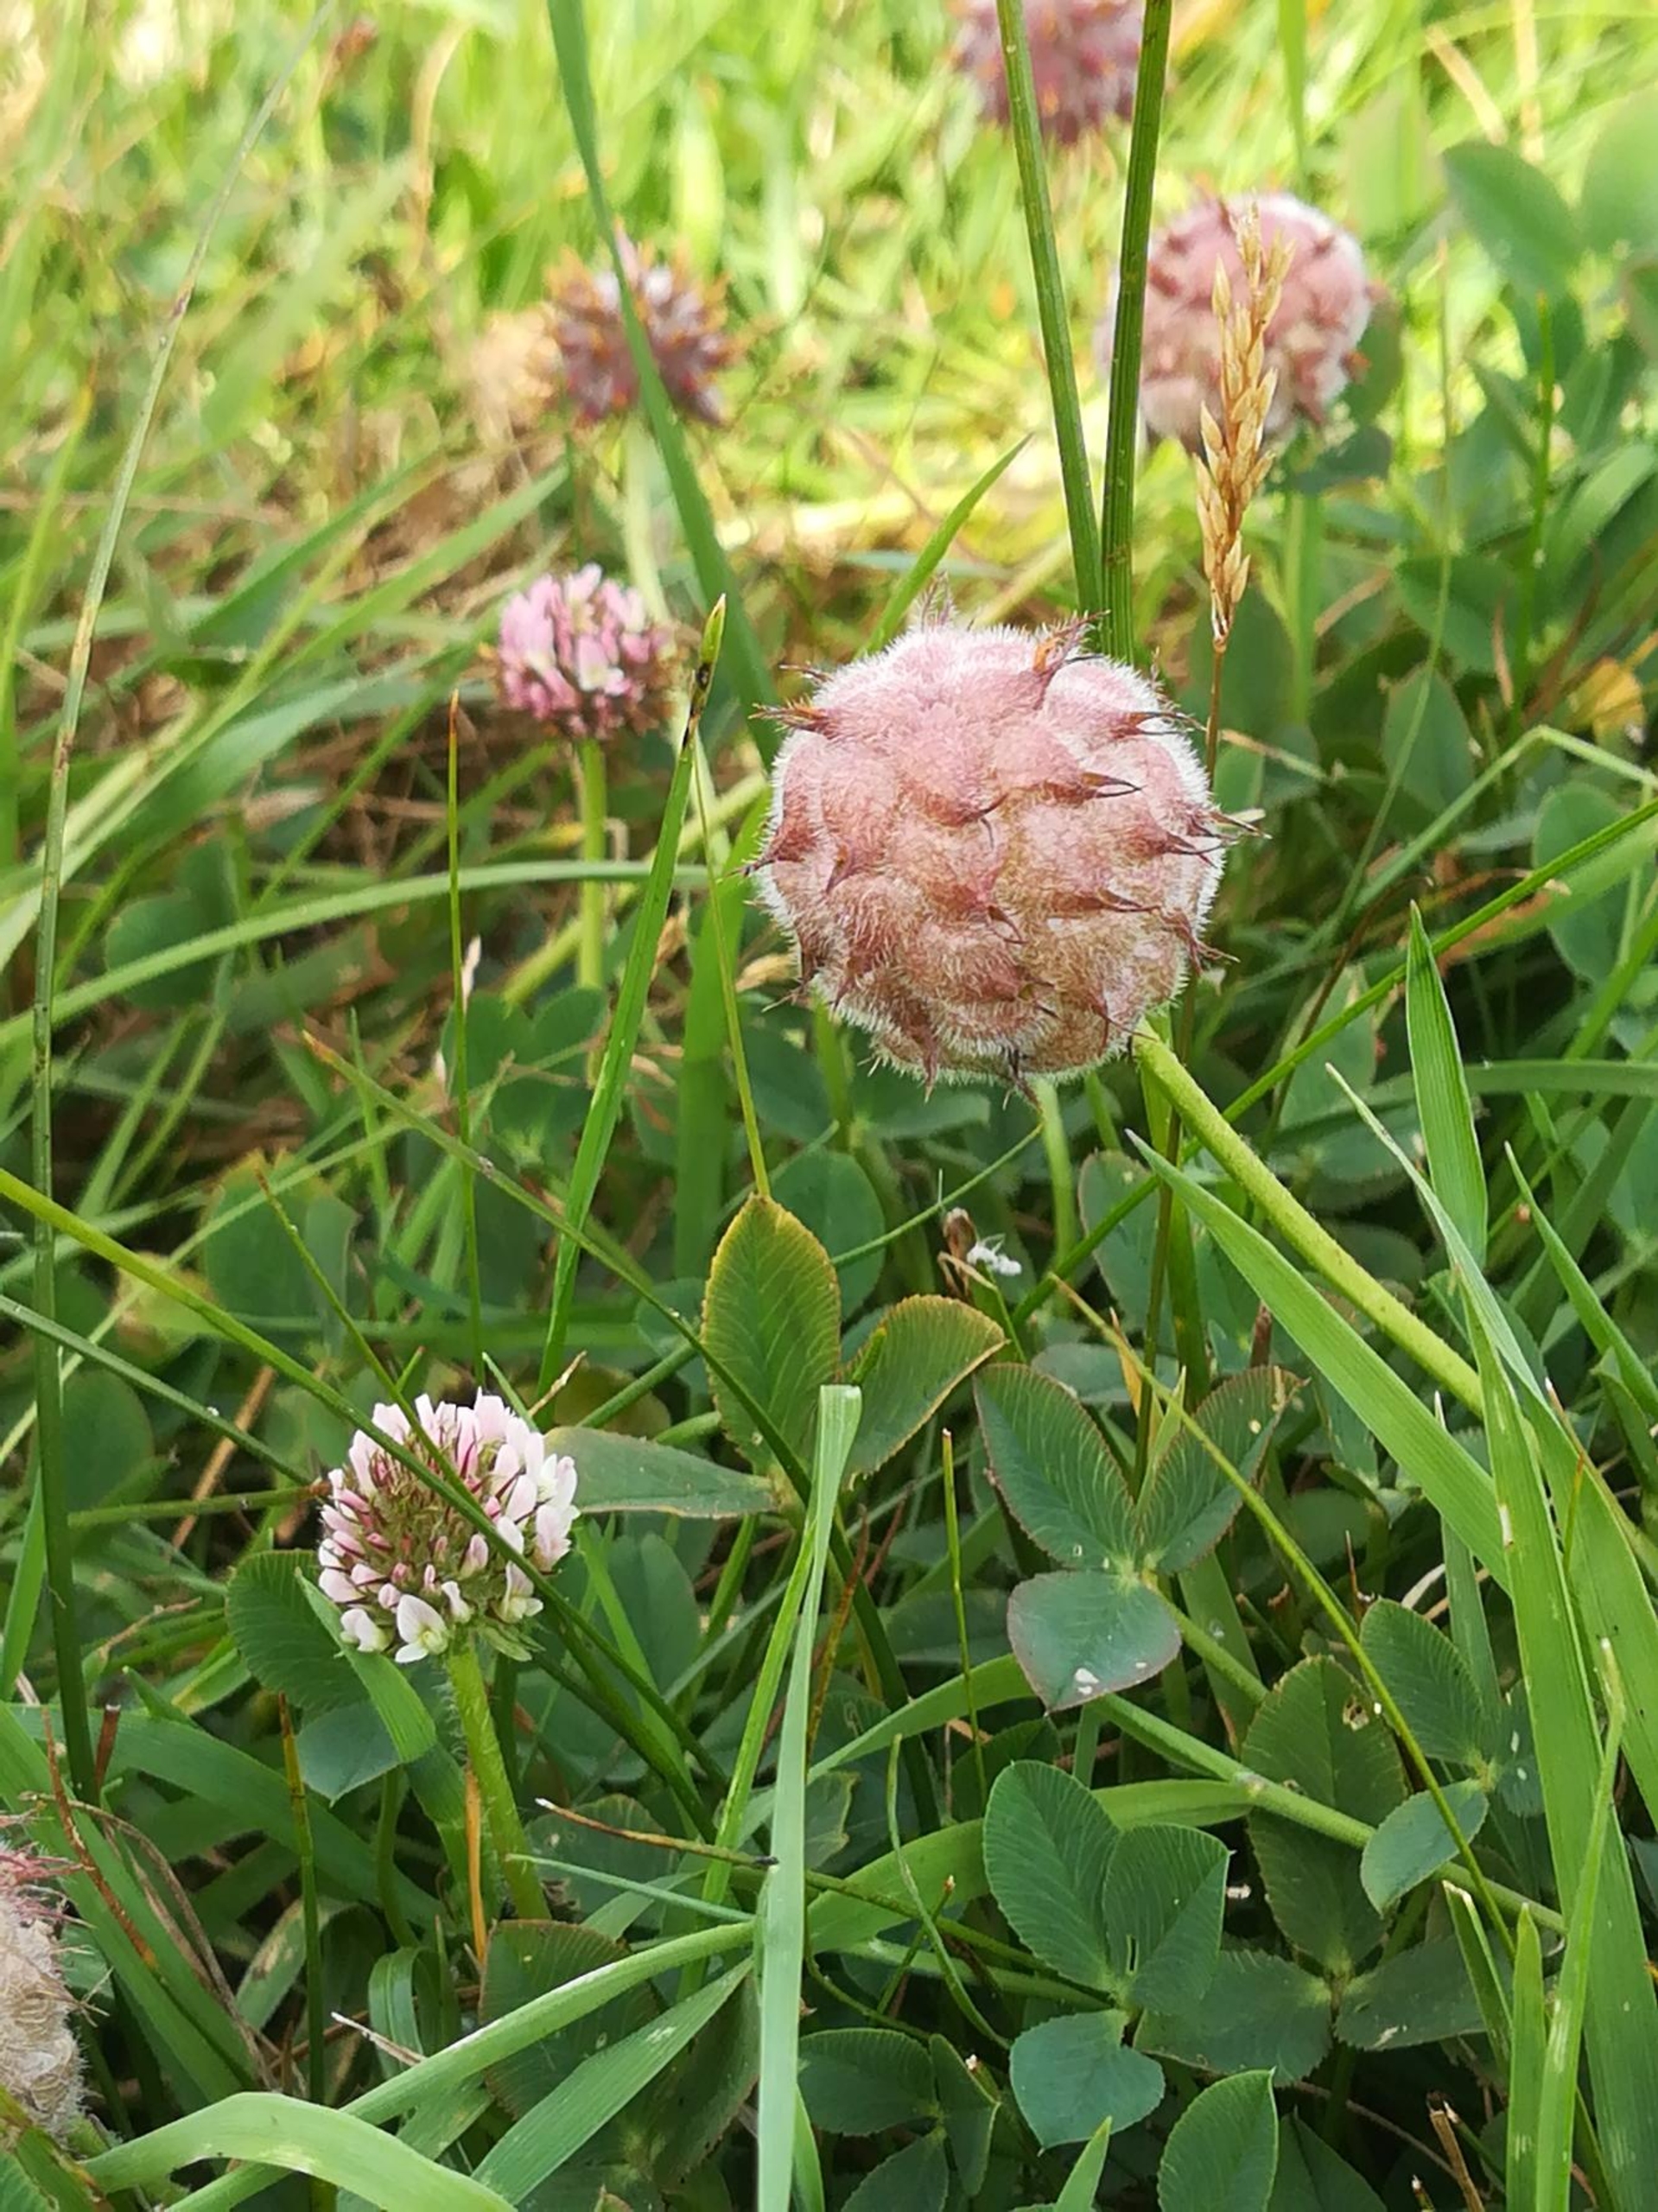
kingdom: Plantae
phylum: Tracheophyta
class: Magnoliopsida
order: Fabales
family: Fabaceae
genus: Trifolium
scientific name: Trifolium fragiferum
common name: Jordbær-kløver
